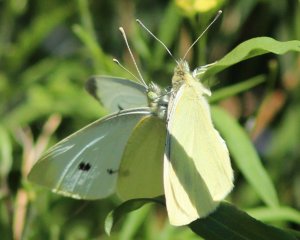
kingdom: Animalia
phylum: Arthropoda
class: Insecta
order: Lepidoptera
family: Pieridae
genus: Pieris
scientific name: Pieris rapae
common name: Cabbage White
